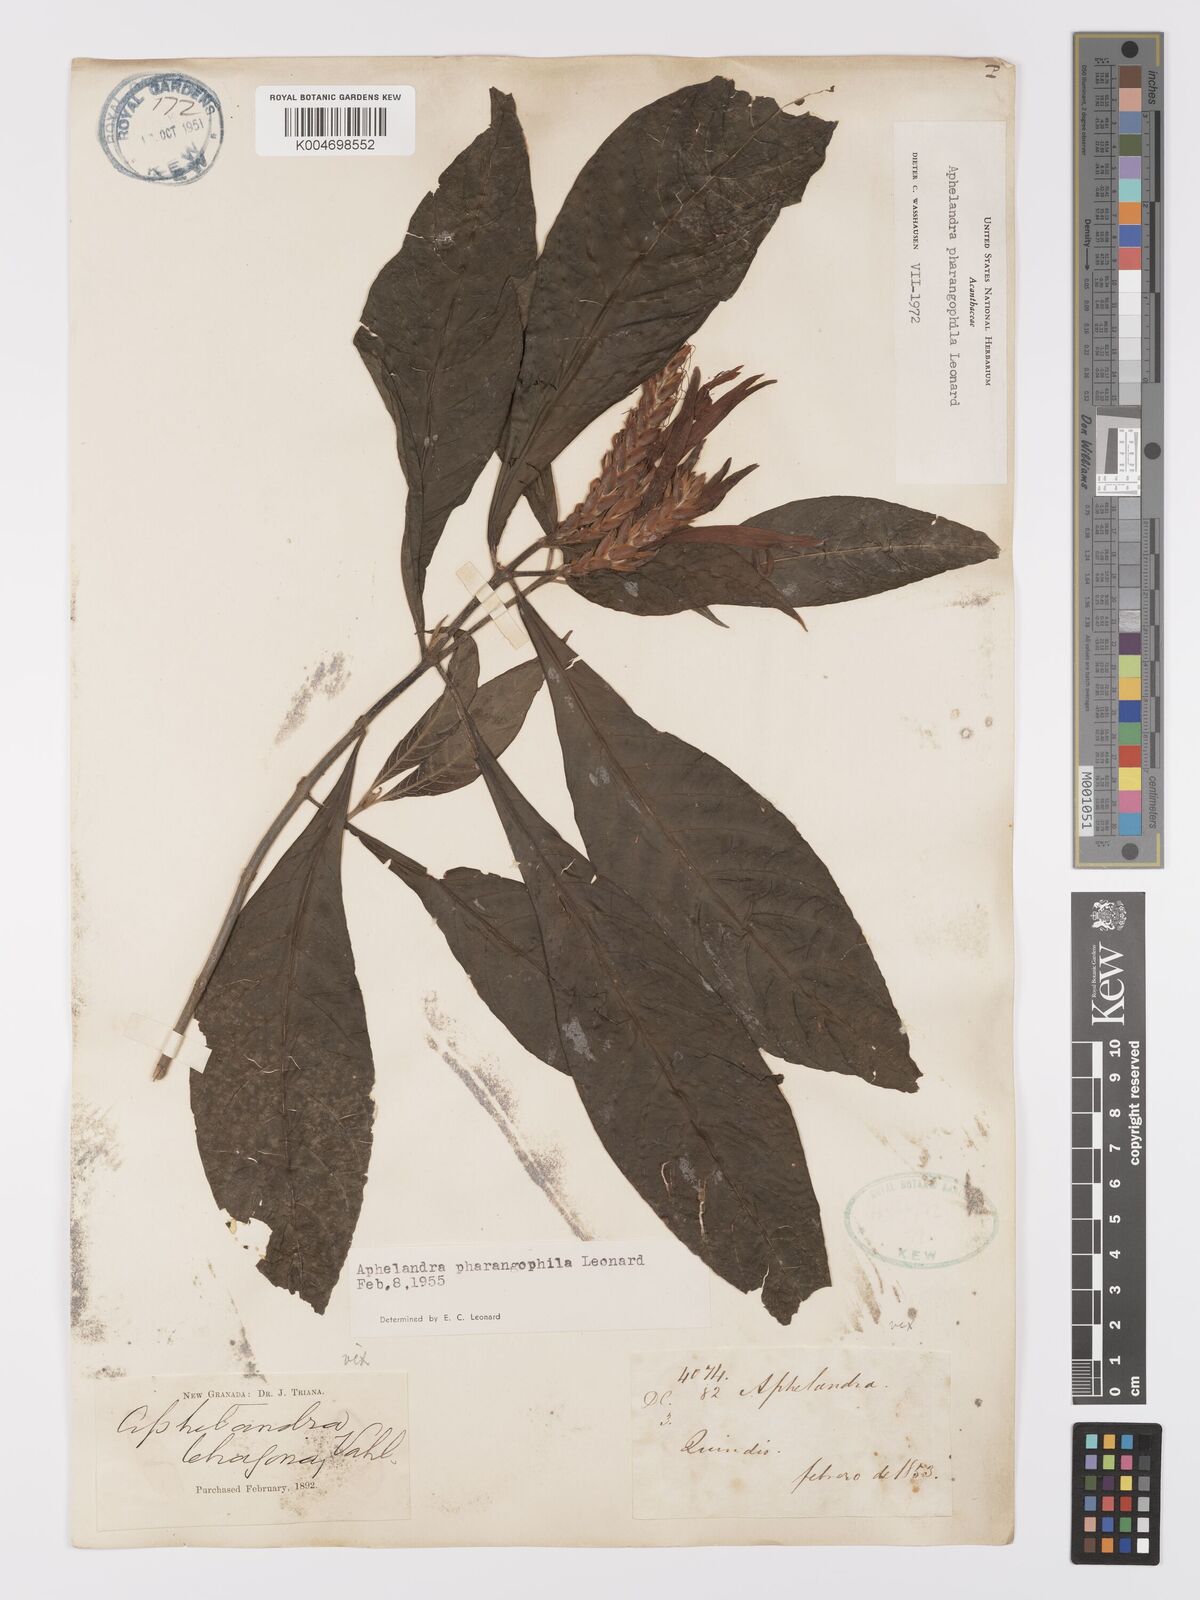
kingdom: Plantae
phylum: Tracheophyta
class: Magnoliopsida
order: Lamiales
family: Acanthaceae
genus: Aphelandra
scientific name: Aphelandra pharangophila
